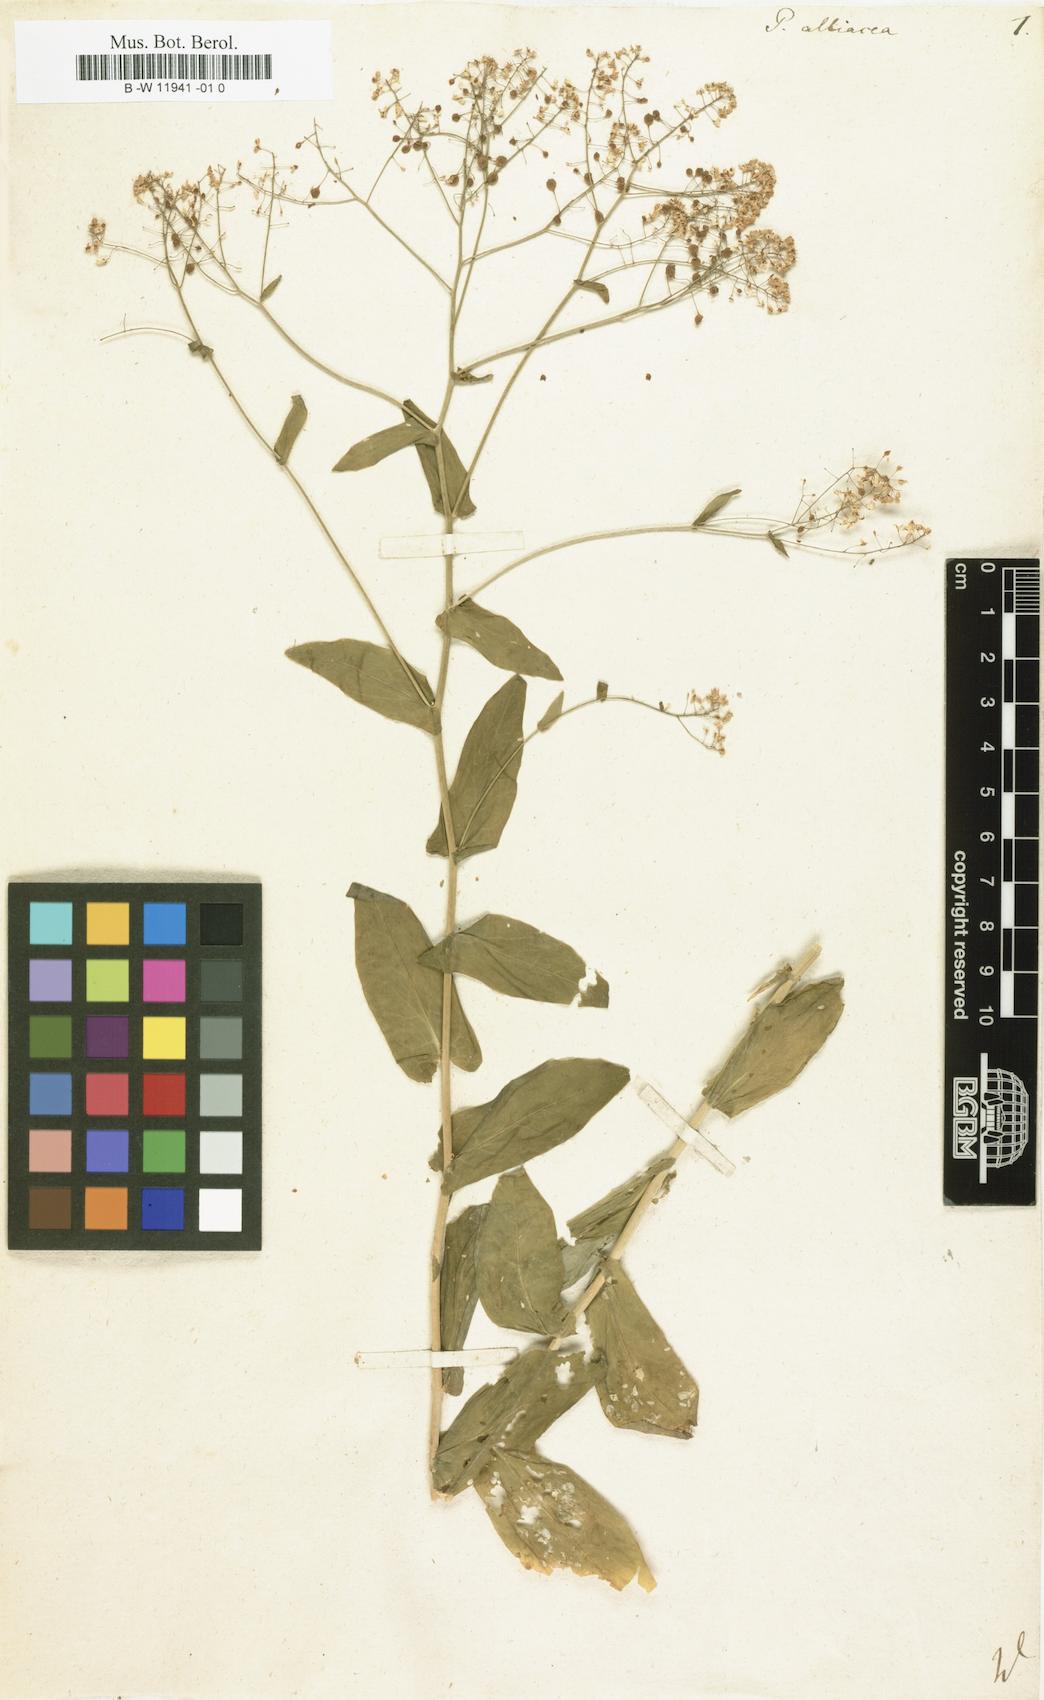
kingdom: Plantae
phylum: Tracheophyta
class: Magnoliopsida
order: Brassicales
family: Brassicaceae
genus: Peltaria
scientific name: Peltaria alliacea
